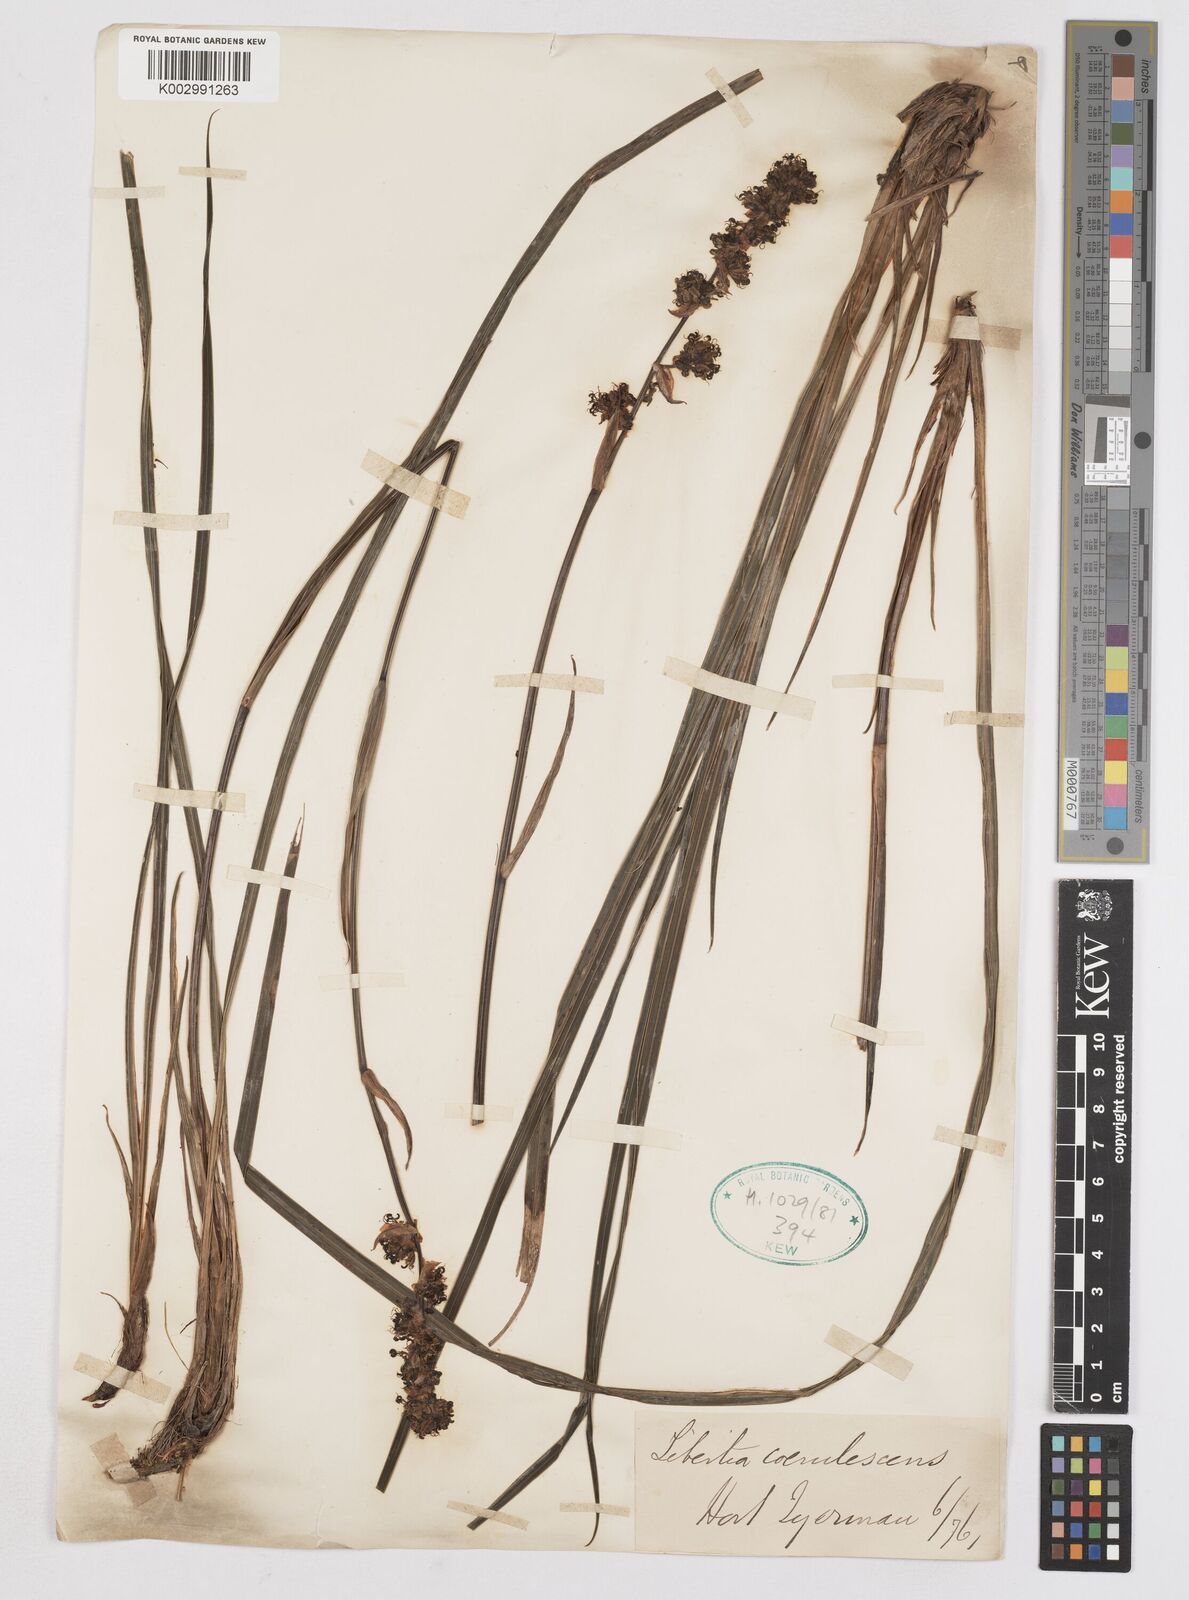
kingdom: Plantae
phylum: Tracheophyta
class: Liliopsida
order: Asparagales
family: Iridaceae
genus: Libertia
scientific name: Libertia sessiliflora
